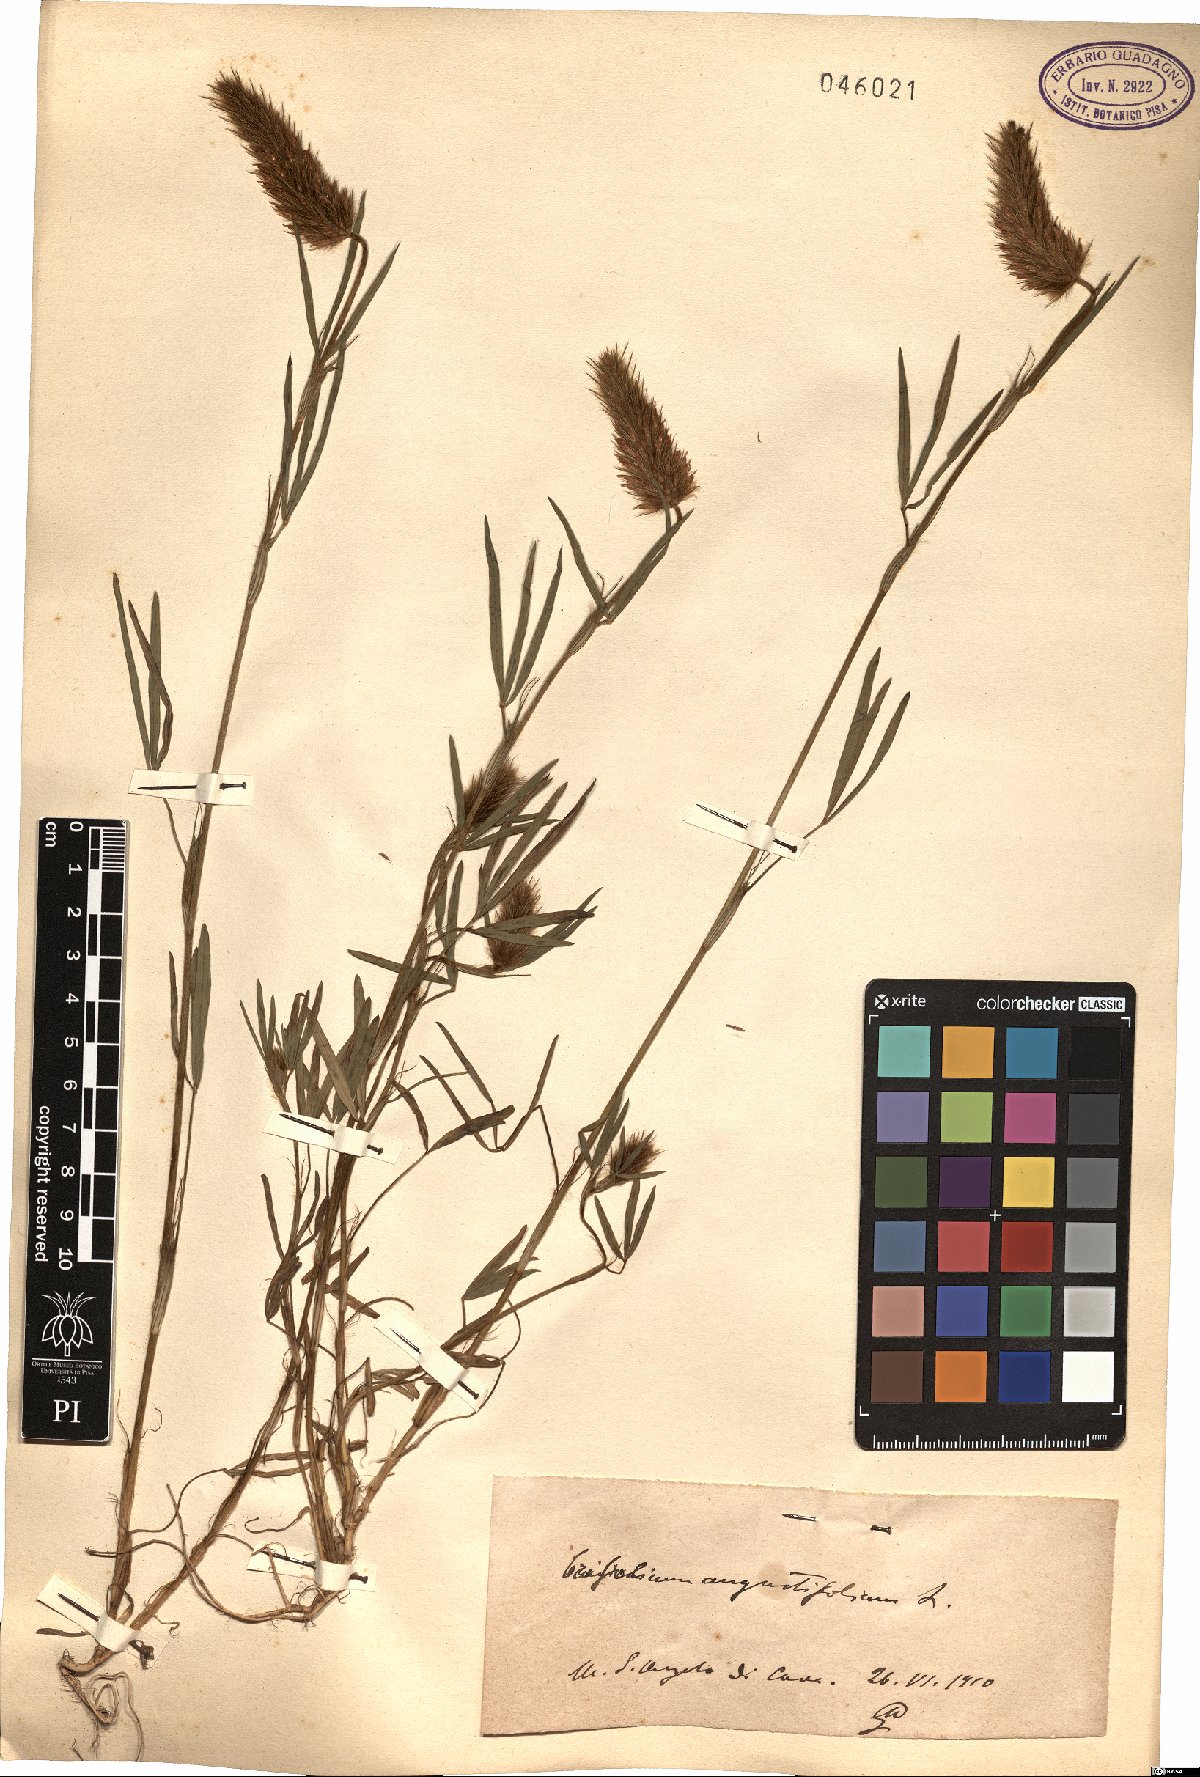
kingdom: Plantae
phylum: Tracheophyta
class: Magnoliopsida
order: Fabales
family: Fabaceae
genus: Trifolium
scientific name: Trifolium angustifolium
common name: Narrow clover
